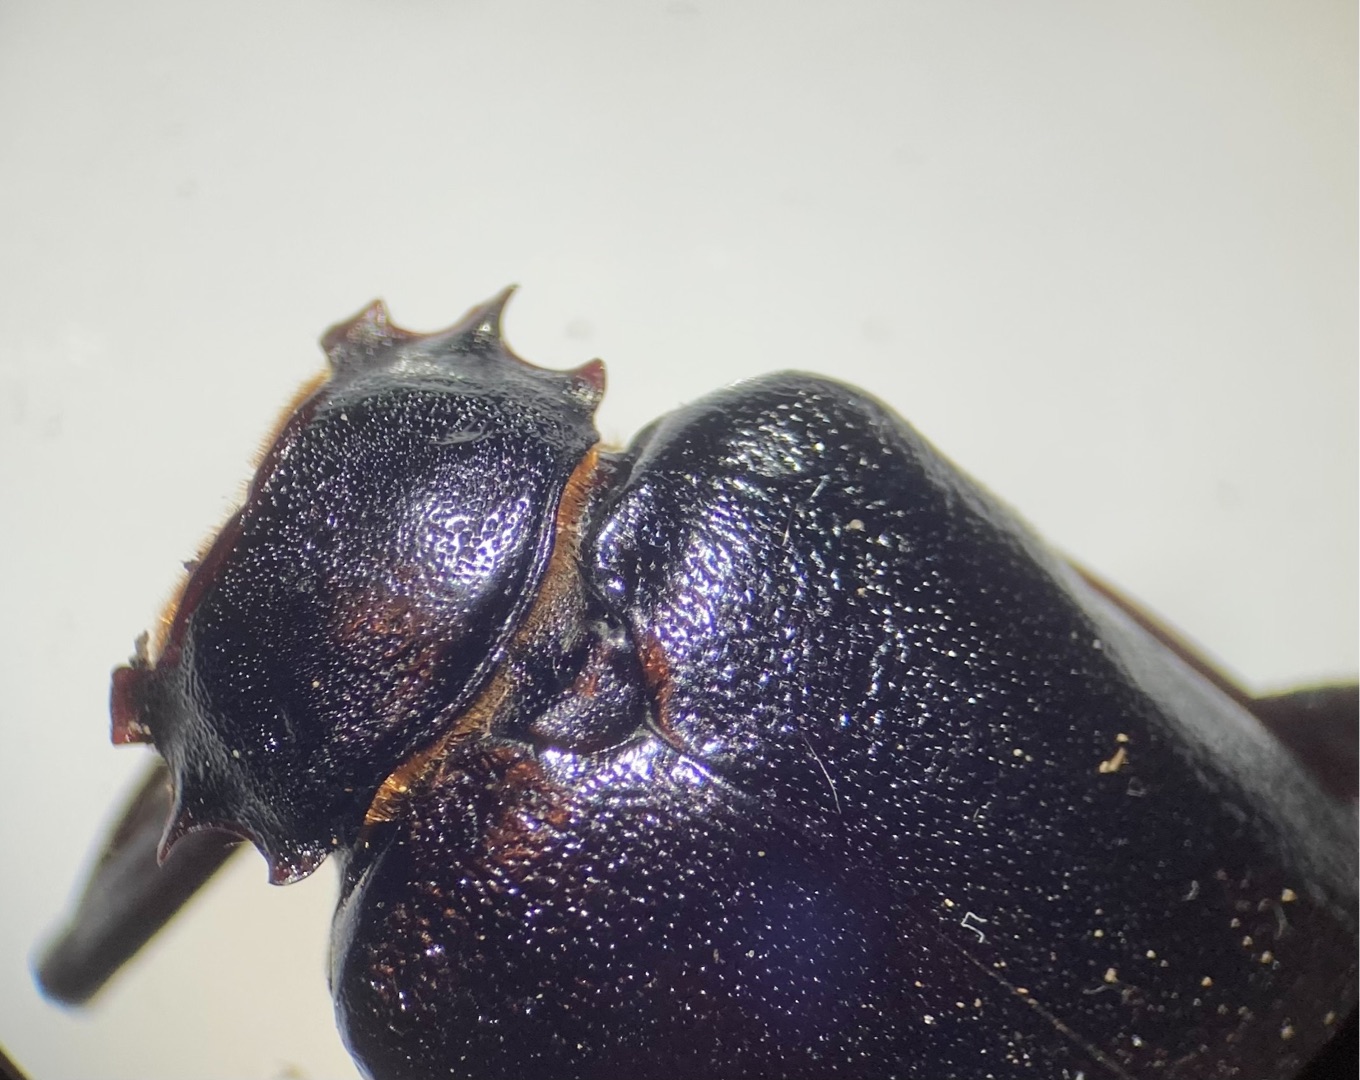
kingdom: Animalia
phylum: Arthropoda
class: Insecta
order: Coleoptera
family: Cerambycidae
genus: Prionus
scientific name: Prionus coriarius
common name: Garver
